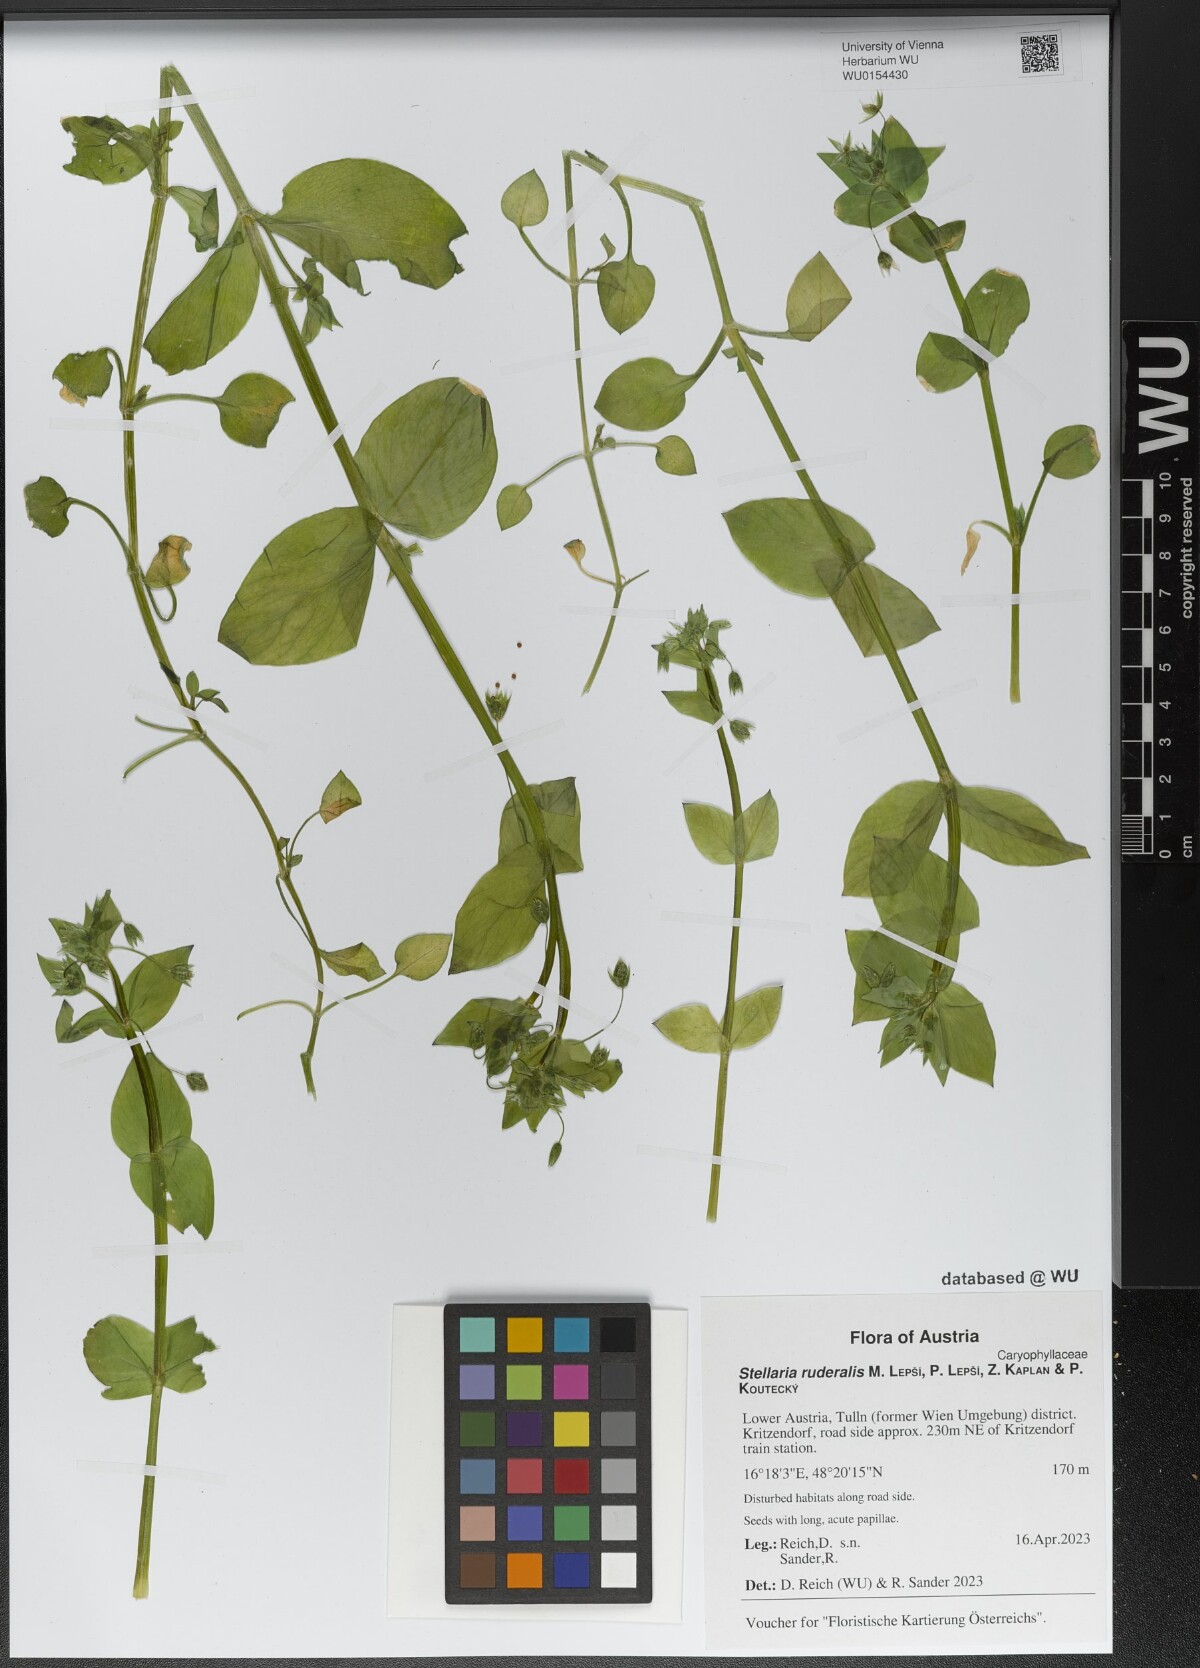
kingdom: Plantae
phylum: Tracheophyta
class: Magnoliopsida
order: Caryophyllales
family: Caryophyllaceae
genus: Stellaria
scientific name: Stellaria ruderalis
